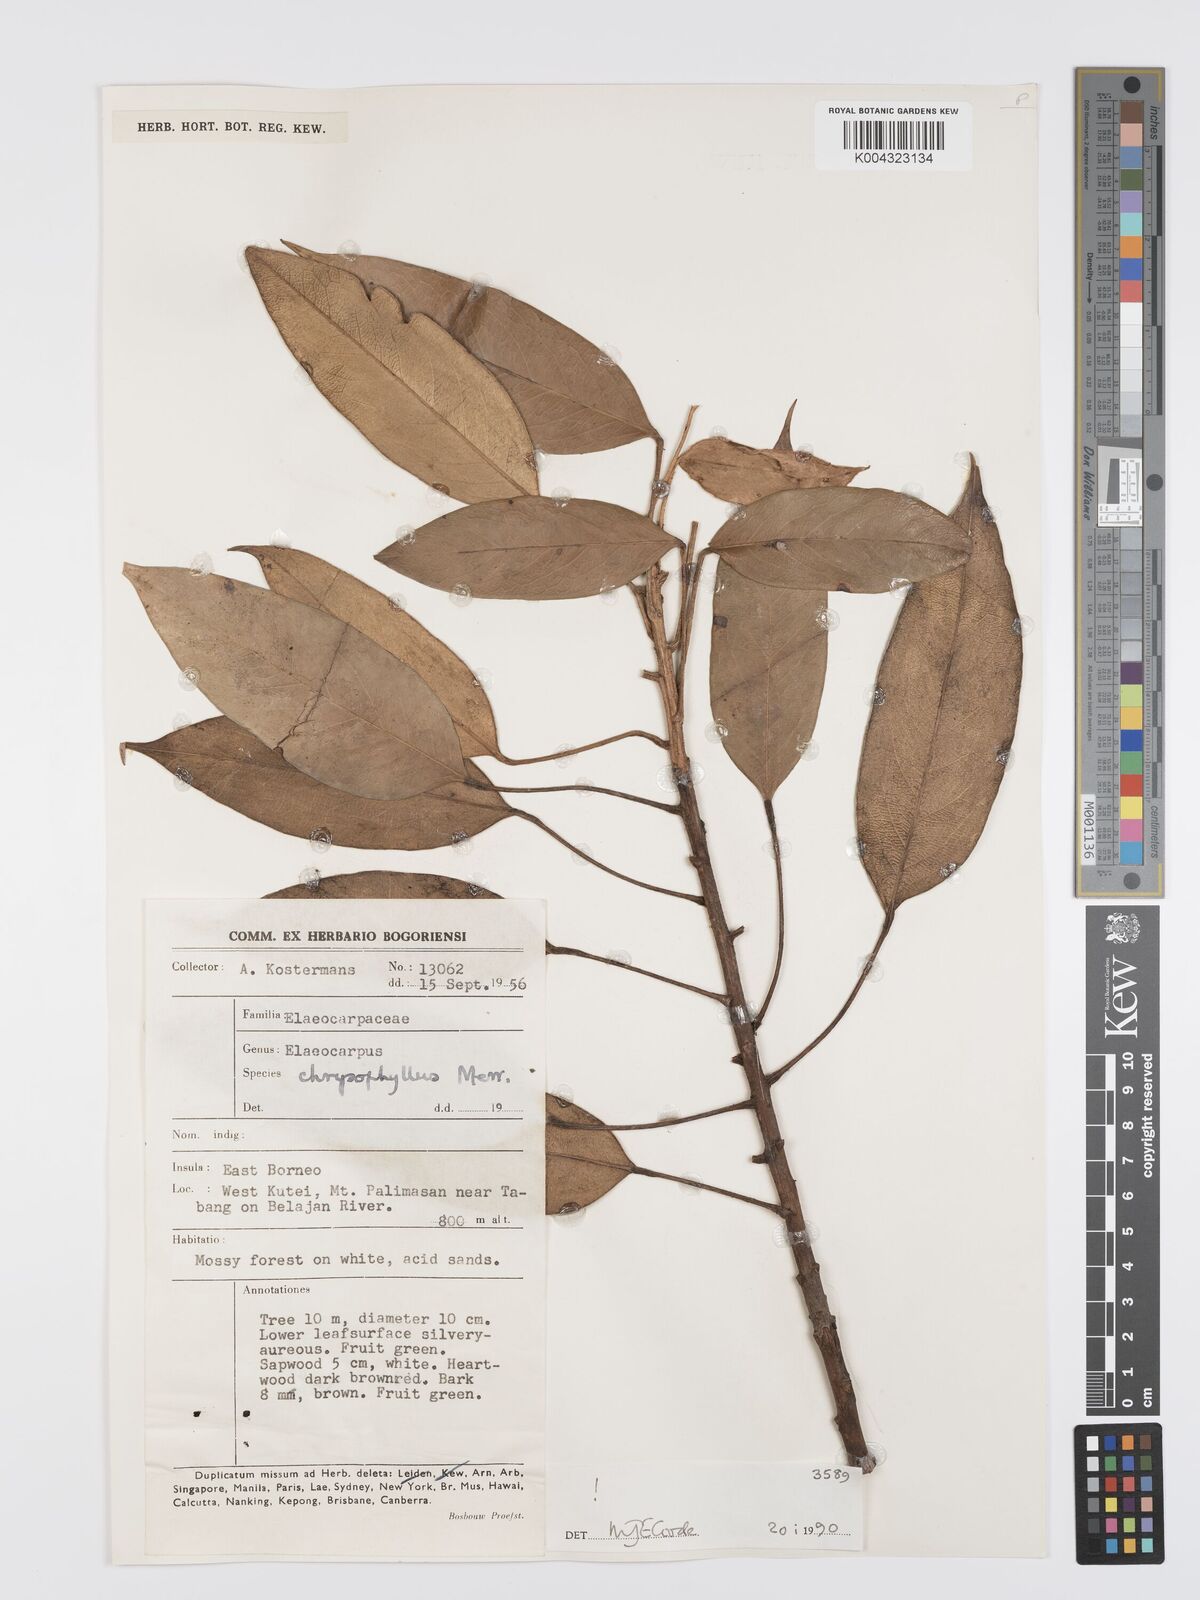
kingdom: Plantae
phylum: Tracheophyta
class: Magnoliopsida
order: Oxalidales
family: Elaeocarpaceae
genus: Elaeocarpus
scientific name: Elaeocarpus chrysophyllus
